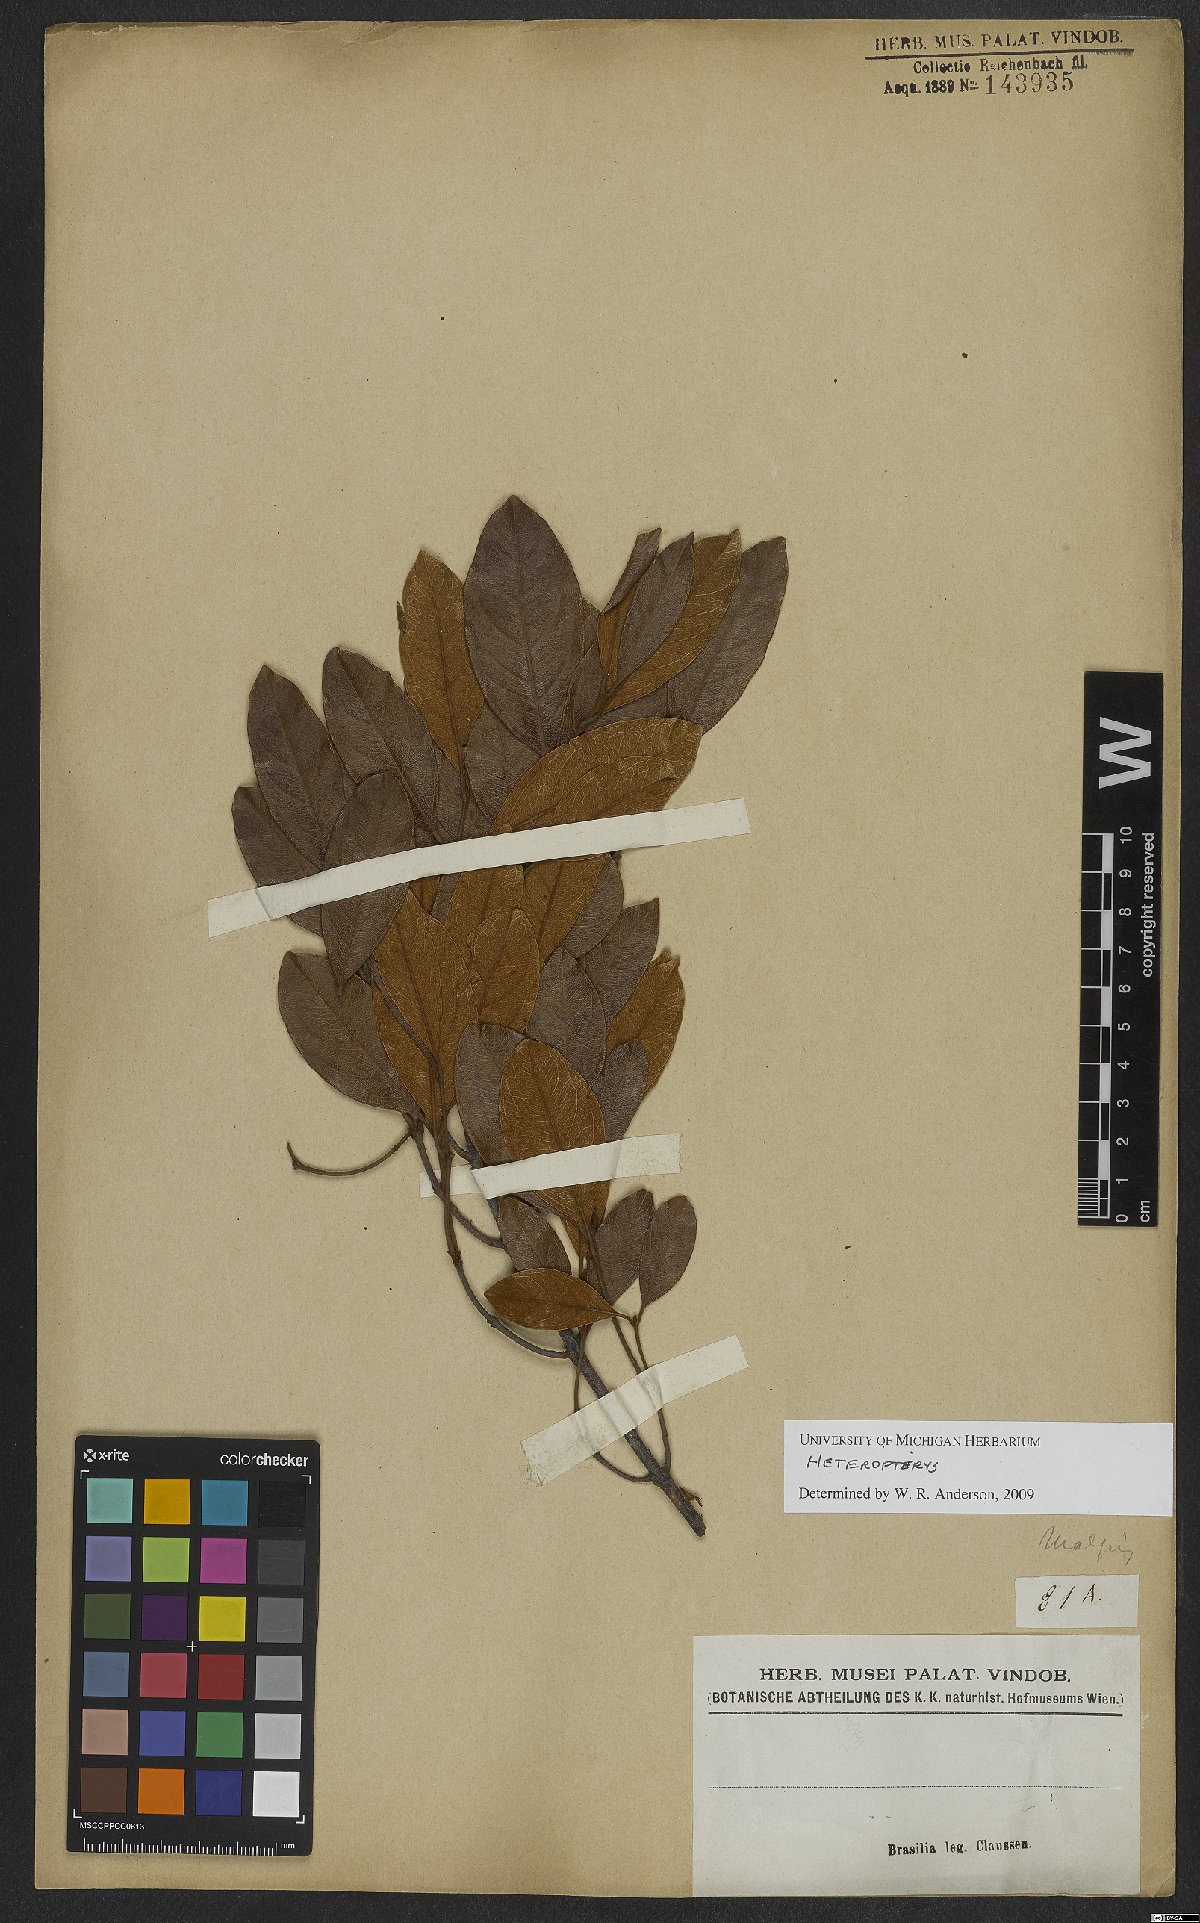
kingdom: Plantae
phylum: Tracheophyta
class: Magnoliopsida
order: Malpighiales
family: Malpighiaceae
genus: Heteropterys
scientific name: Heteropterys
